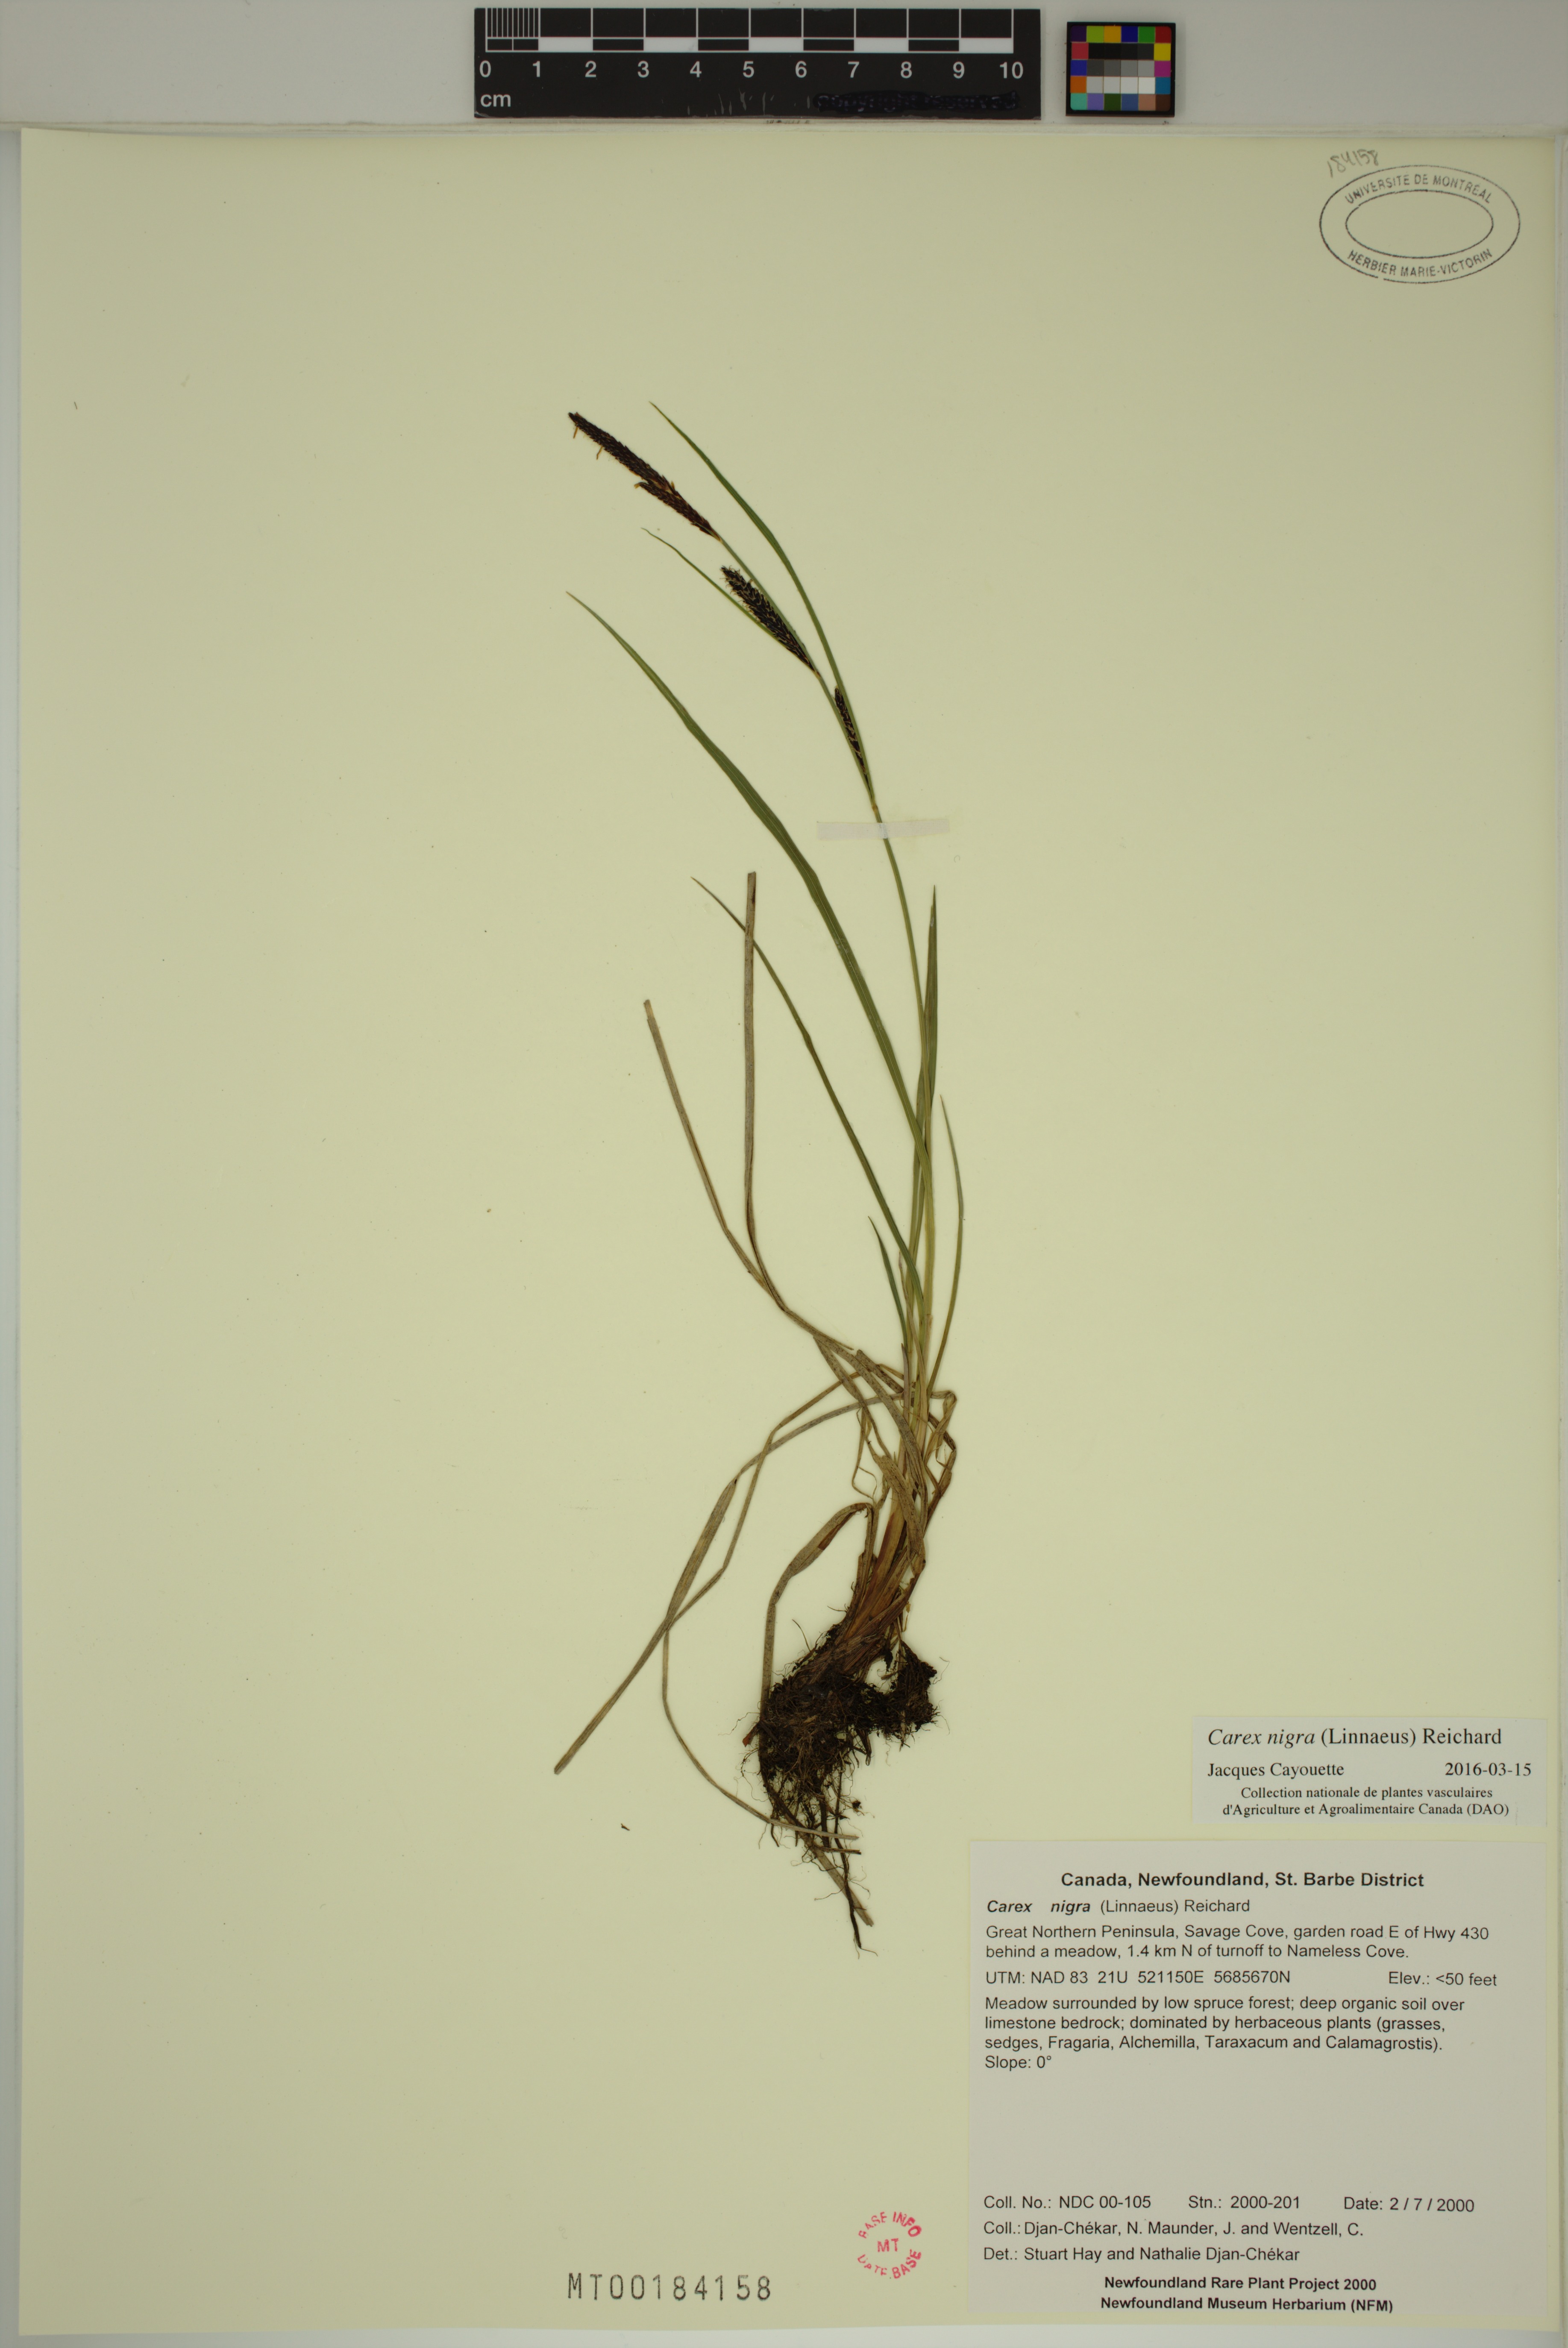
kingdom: Plantae
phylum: Tracheophyta
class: Liliopsida
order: Poales
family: Cyperaceae
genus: Carex
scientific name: Carex nigra
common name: Common sedge
